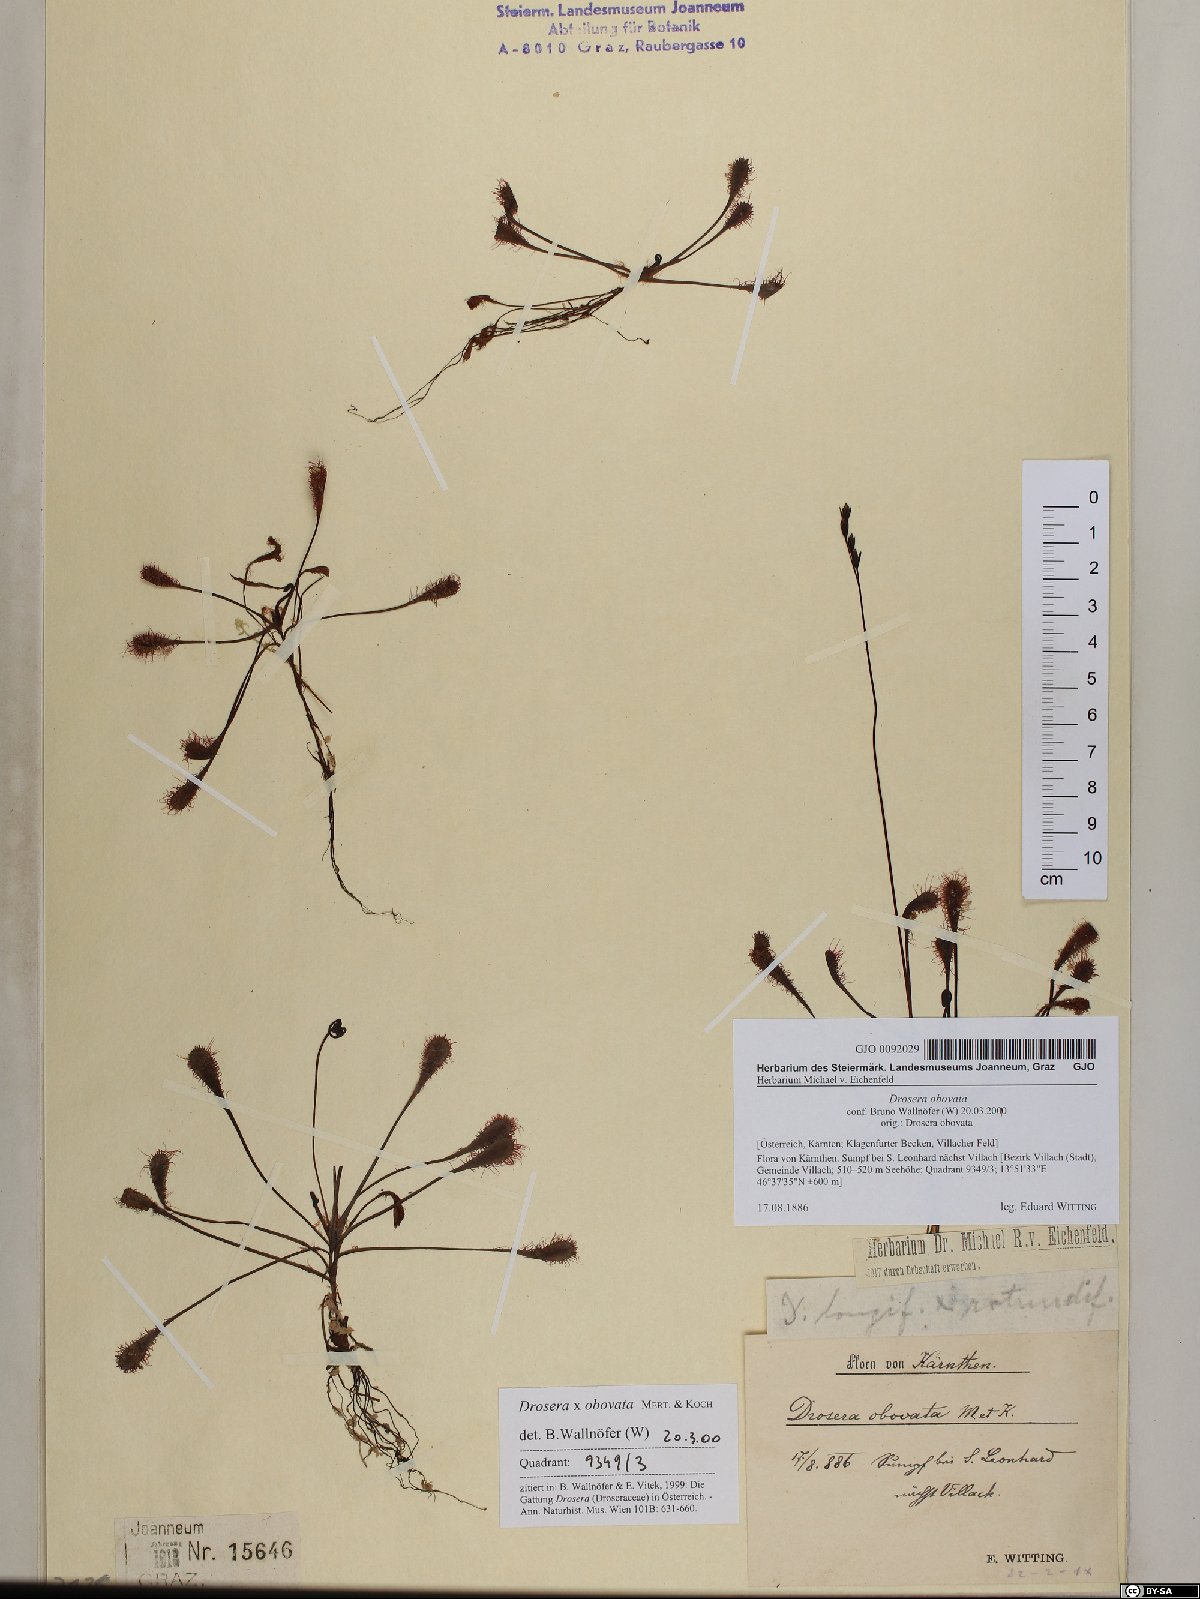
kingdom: Plantae
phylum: Tracheophyta
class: Magnoliopsida
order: Caryophyllales
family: Droseraceae
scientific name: Droseraceae
